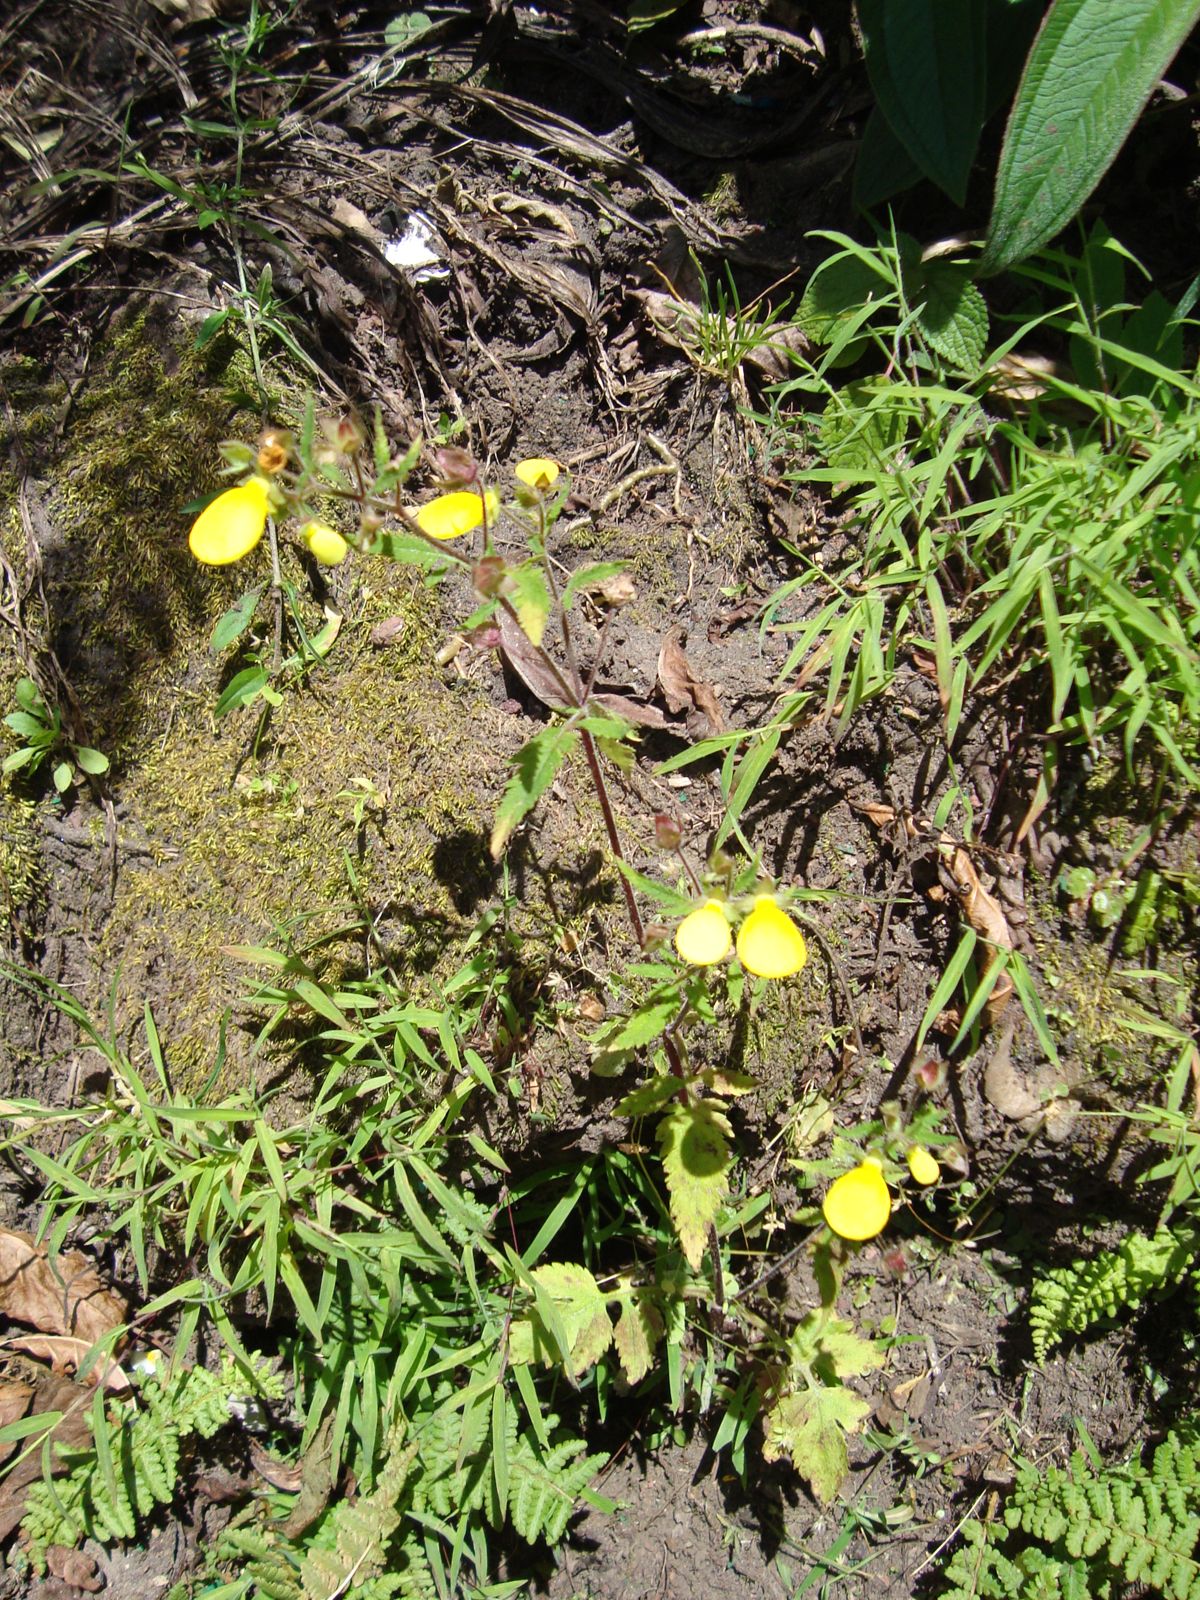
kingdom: Plantae
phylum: Tracheophyta
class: Magnoliopsida
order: Lamiales
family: Calceolariaceae
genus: Calceolaria
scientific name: Calceolaria mexicana
